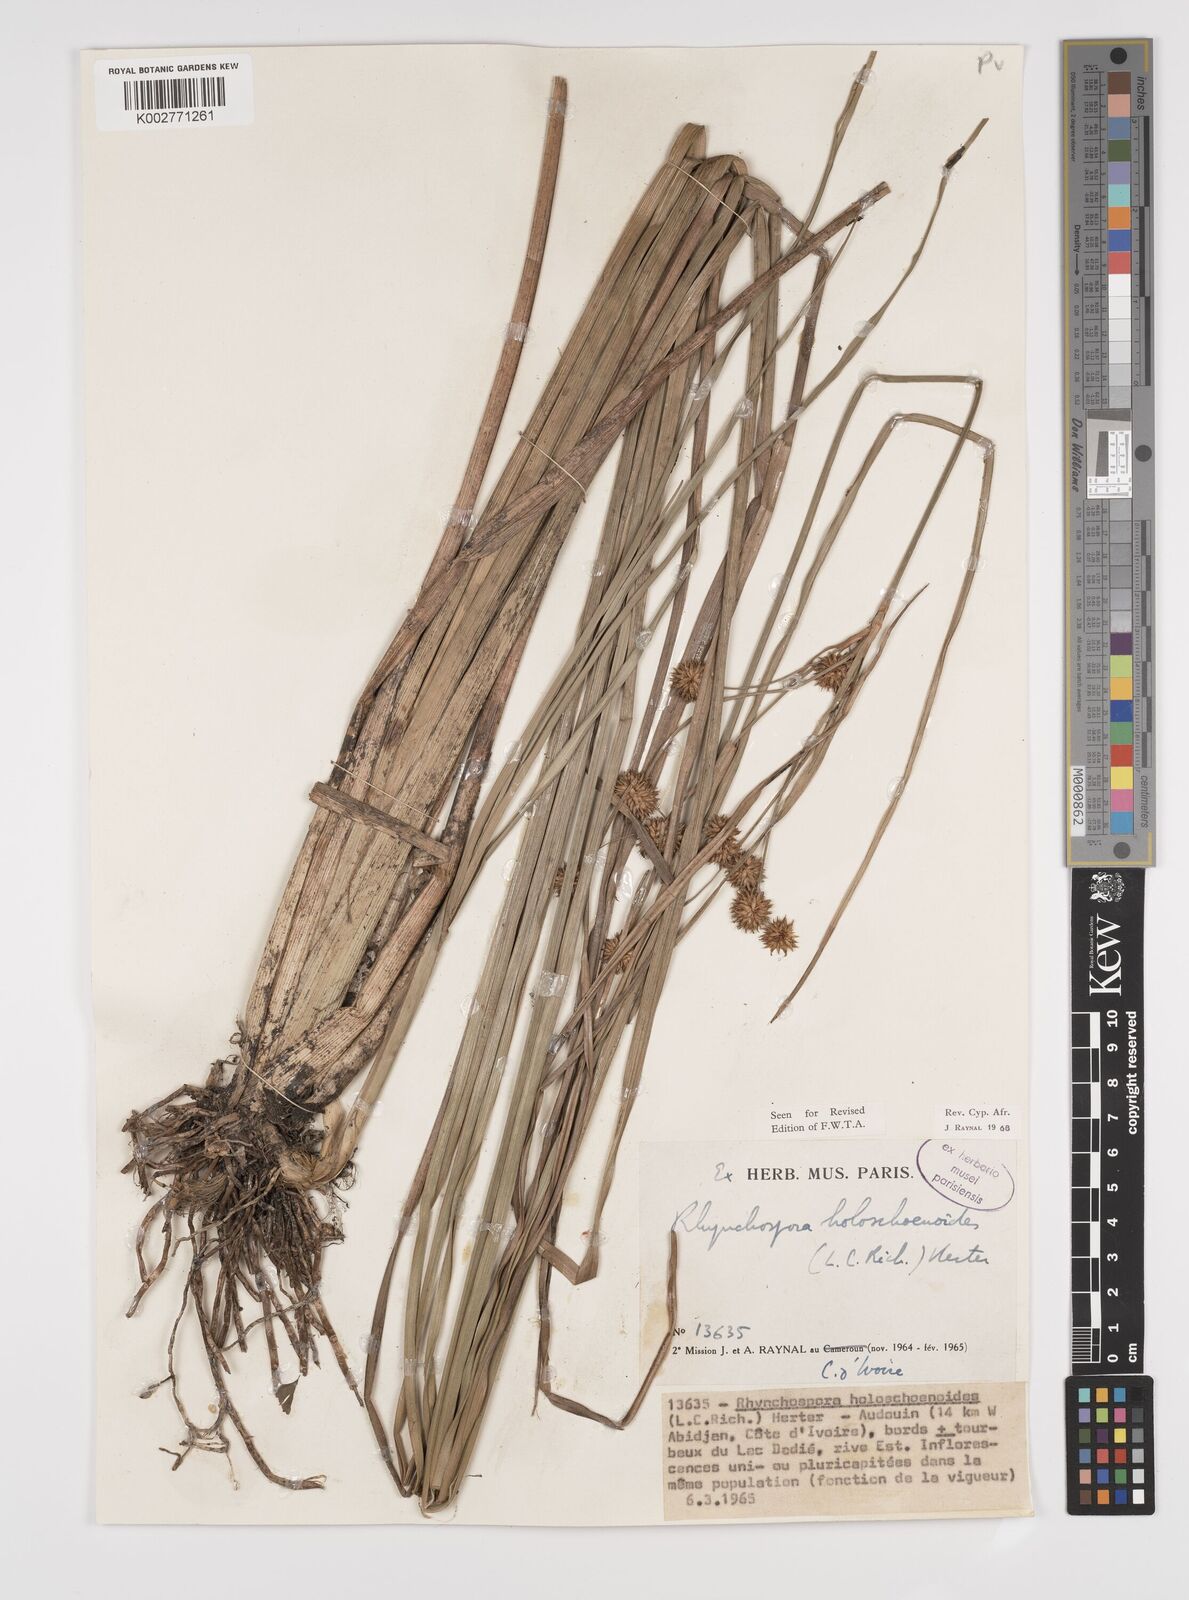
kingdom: Plantae
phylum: Tracheophyta
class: Liliopsida
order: Poales
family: Cyperaceae
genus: Rhynchospora
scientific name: Rhynchospora holoschoenoides
